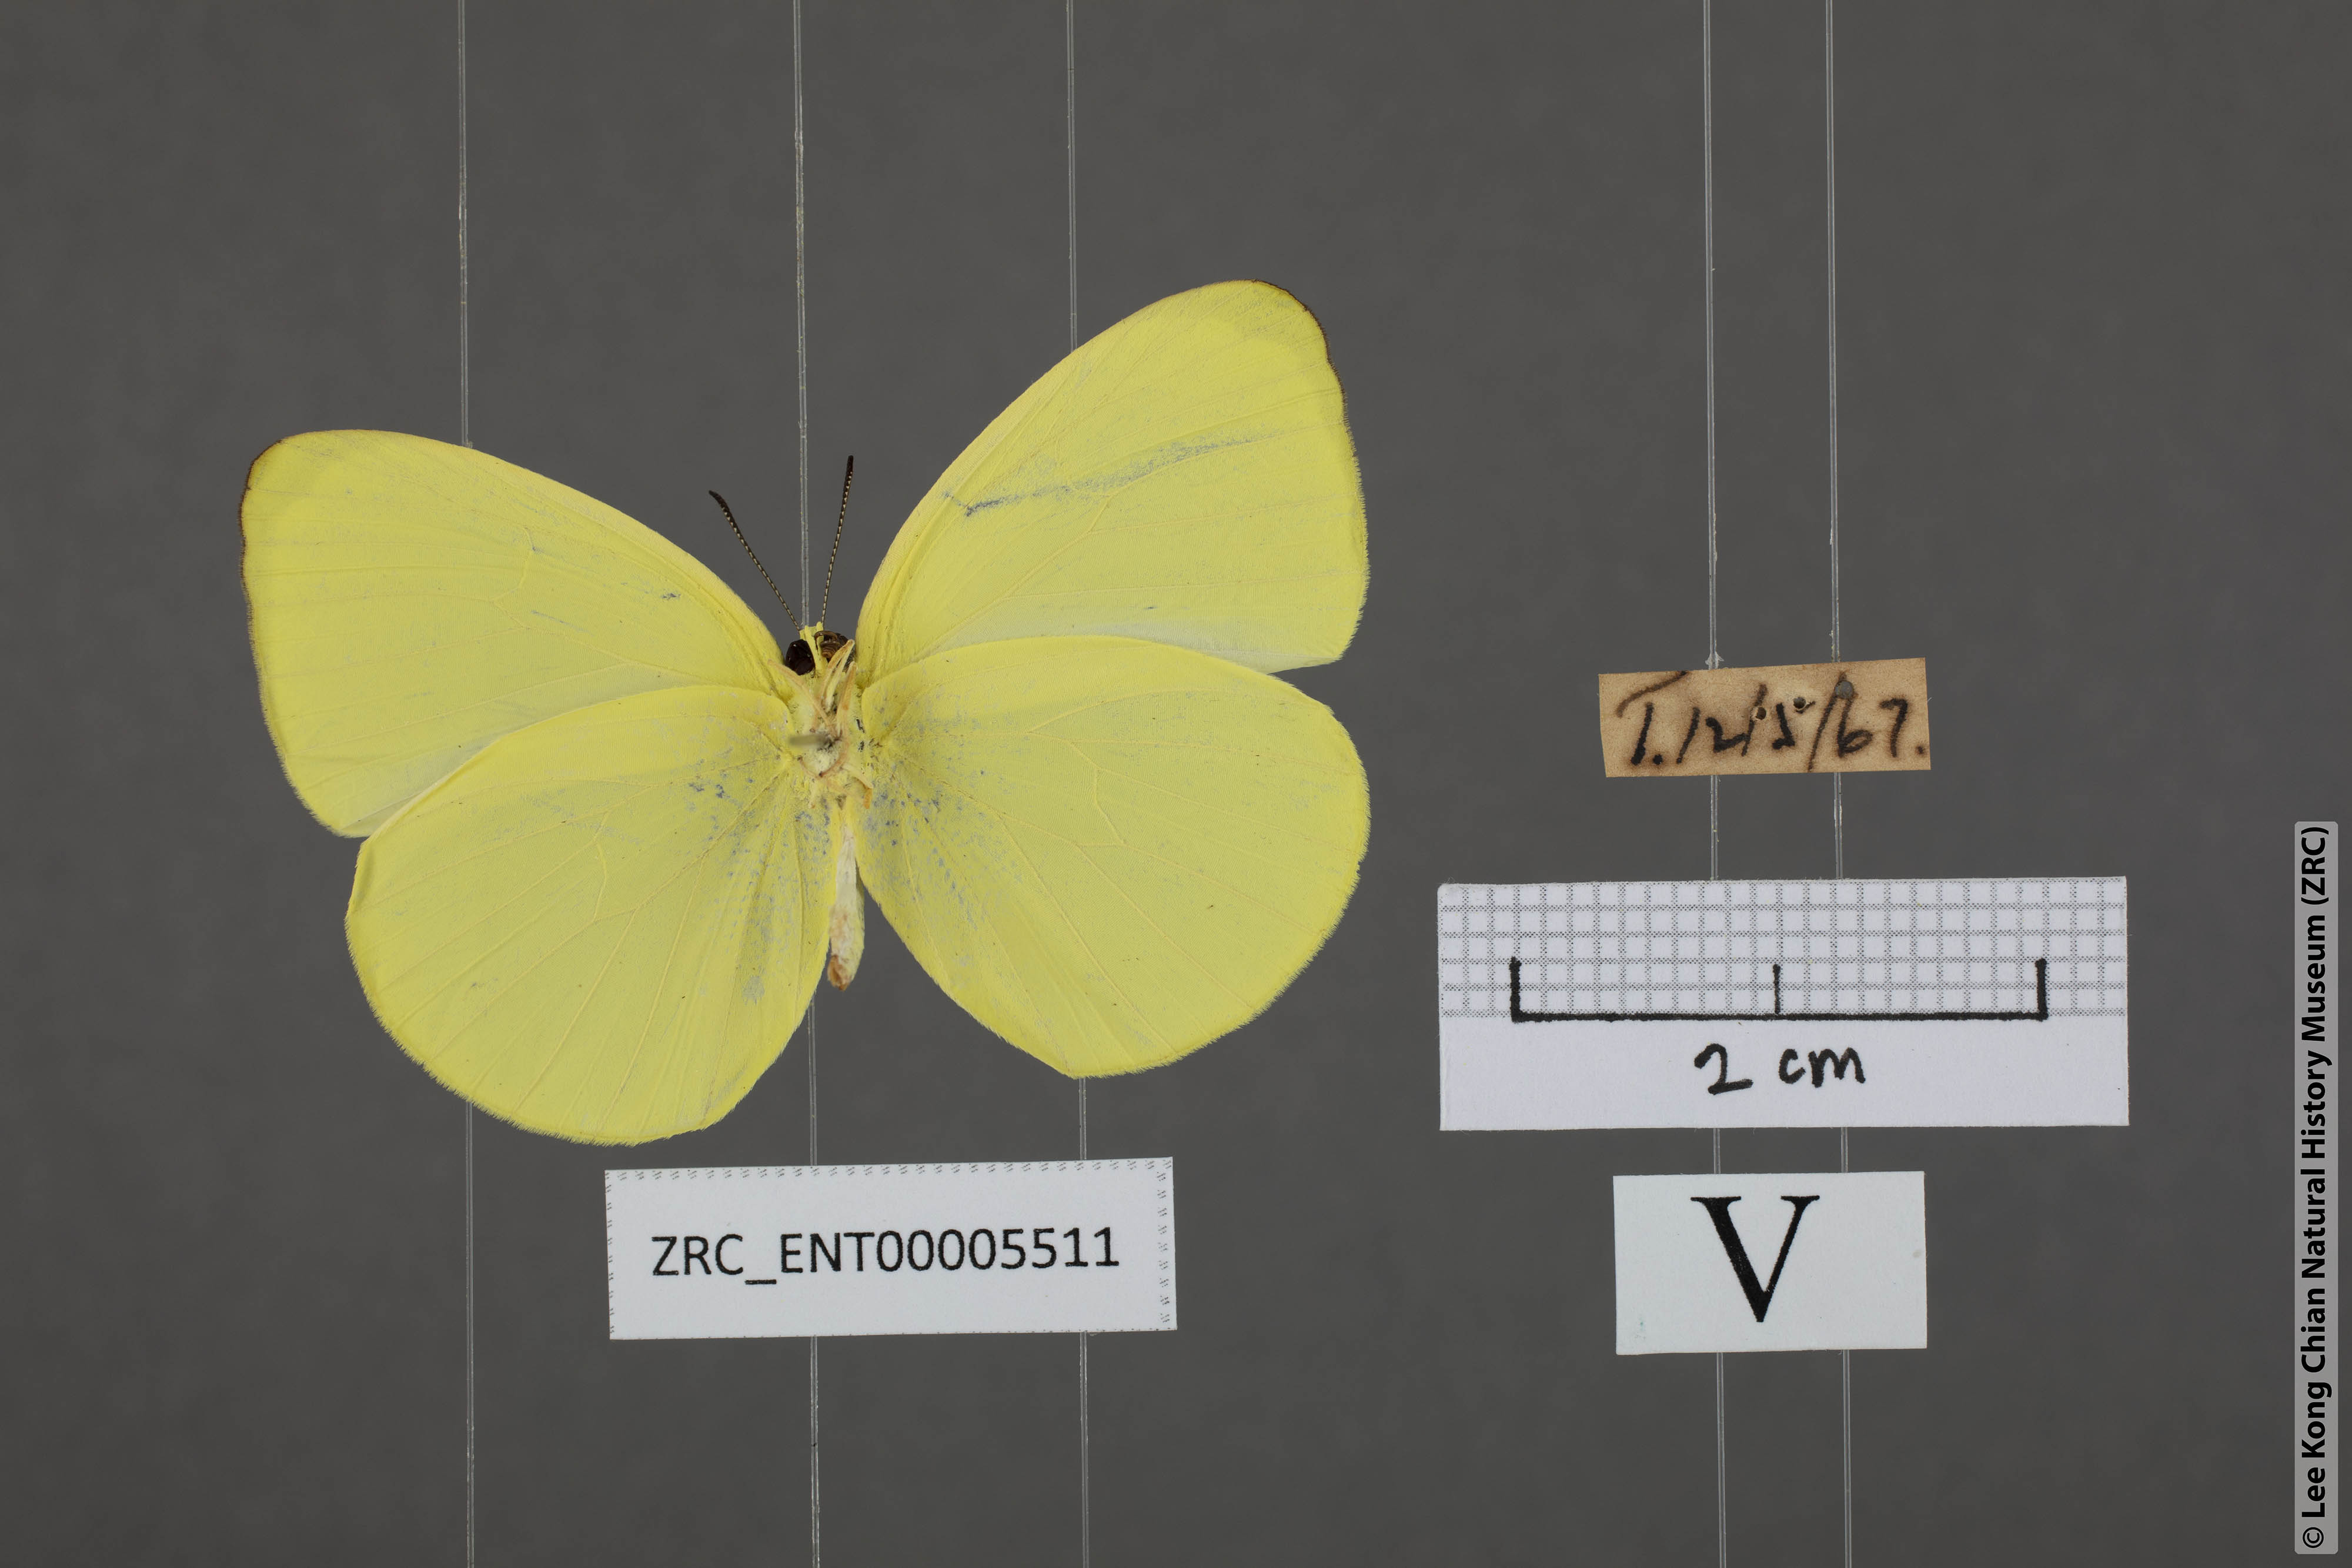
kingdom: Animalia
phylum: Arthropoda
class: Insecta
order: Lepidoptera
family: Pieridae
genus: Gandaca
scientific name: Gandaca harina
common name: Tree yellow
